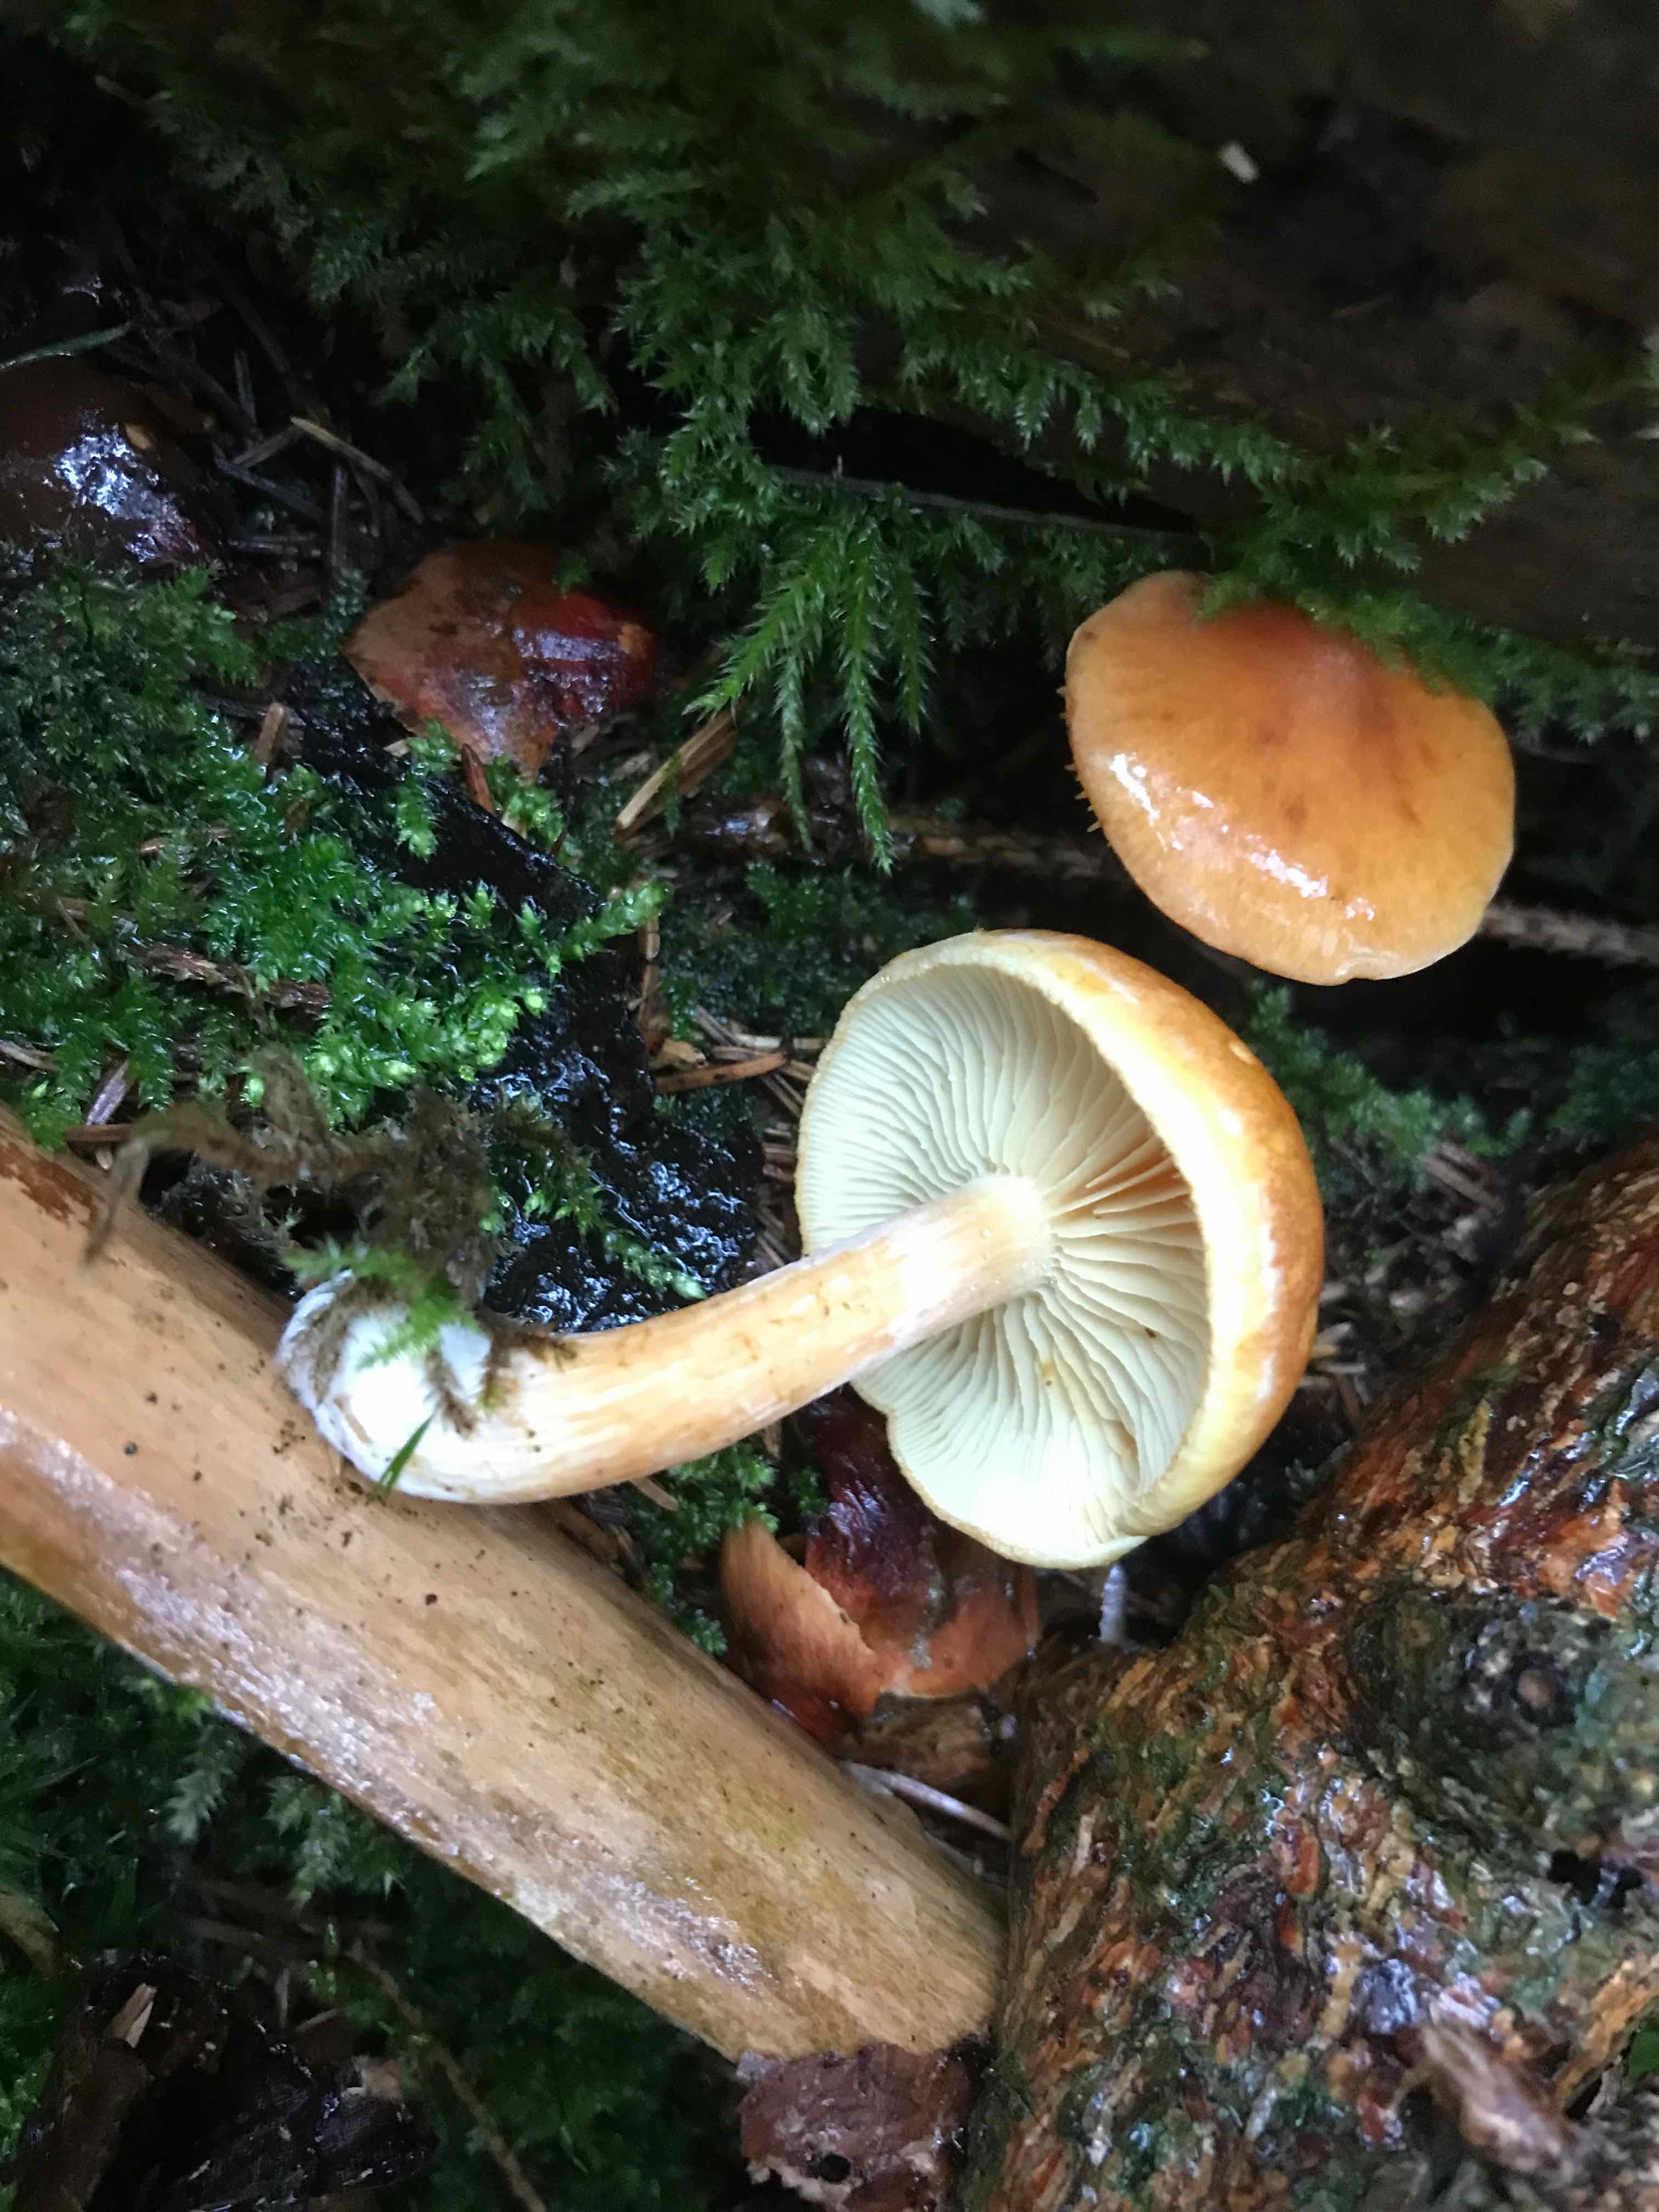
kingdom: Fungi
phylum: Basidiomycota
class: Agaricomycetes
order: Agaricales
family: Hymenogastraceae
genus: Gymnopilus
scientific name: Gymnopilus penetrans
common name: plettet flammehat
